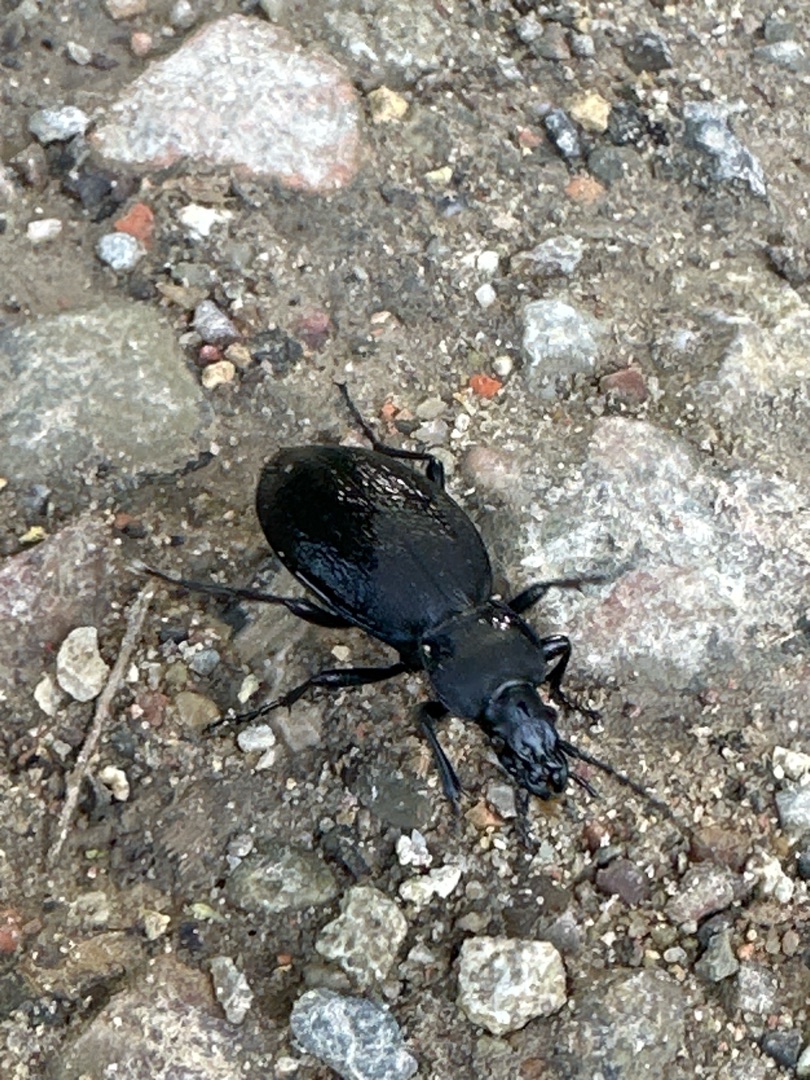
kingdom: Animalia
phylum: Arthropoda
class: Insecta
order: Coleoptera
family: Carabidae
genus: Carabus
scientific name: Carabus coriaceus
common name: Læderløber
